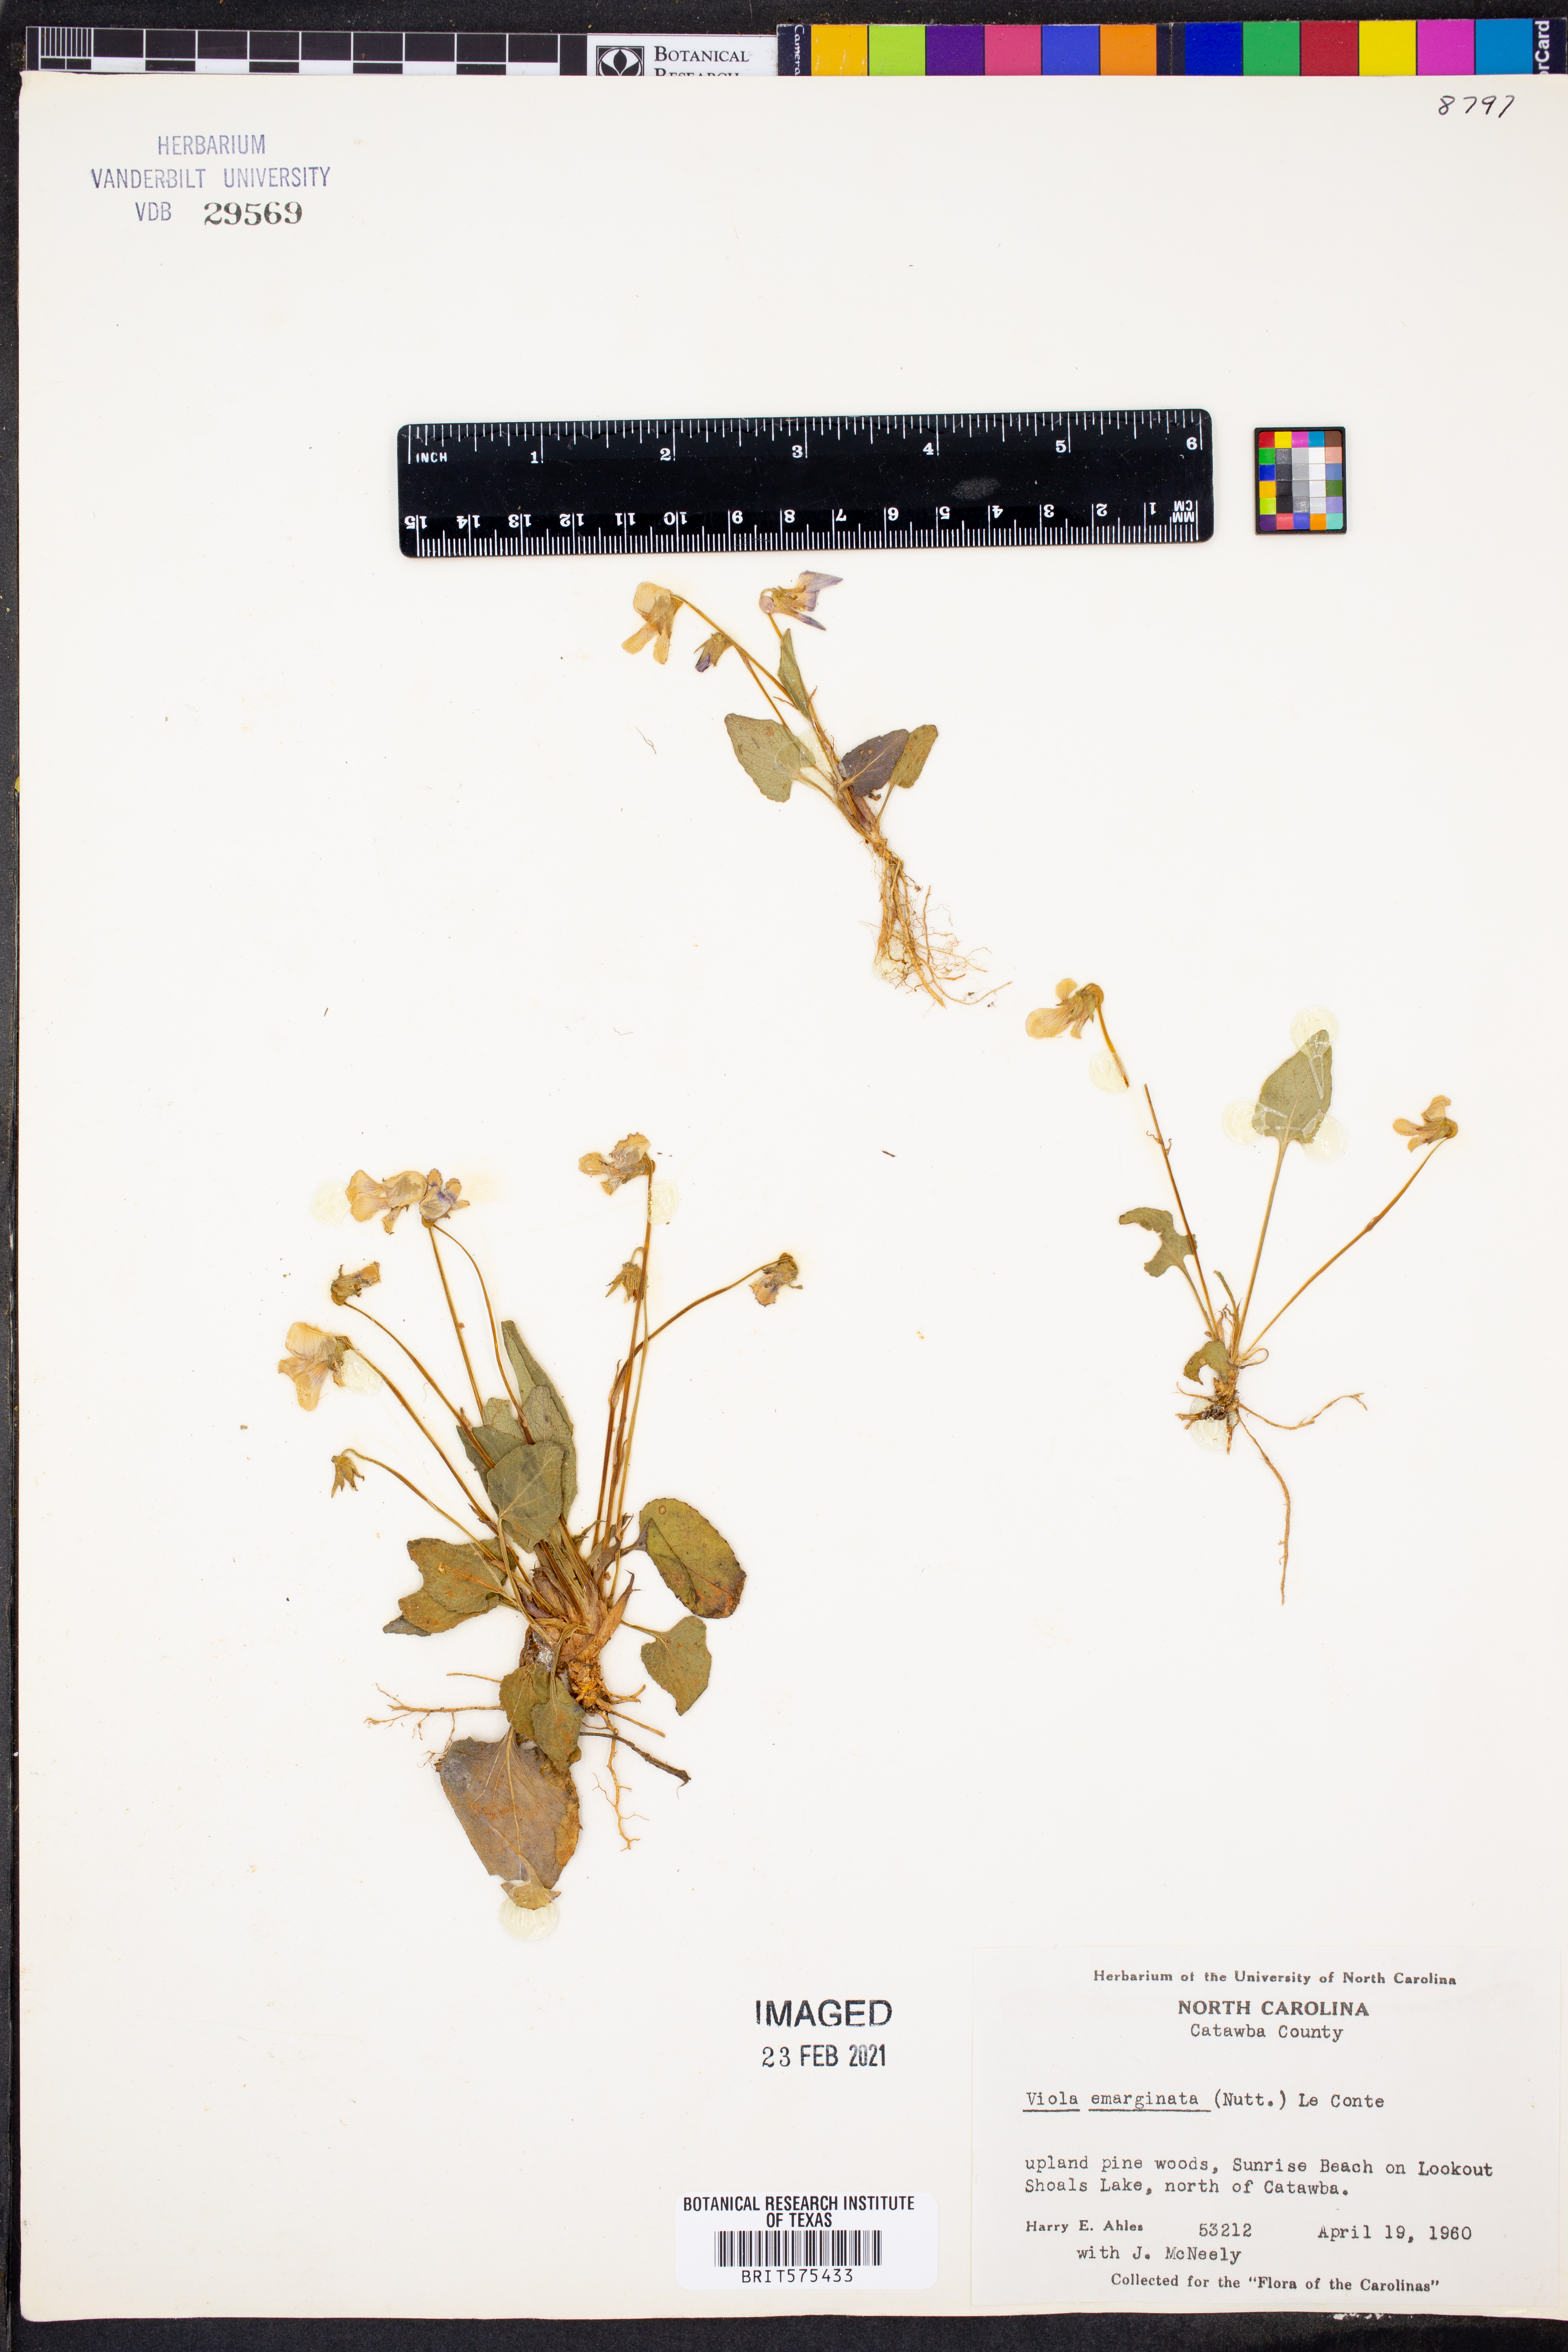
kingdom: Plantae
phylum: Tracheophyta
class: Magnoliopsida
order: Malpighiales
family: Violaceae
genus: Viola
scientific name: Viola emarginata
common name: Triangle-leaved violet
